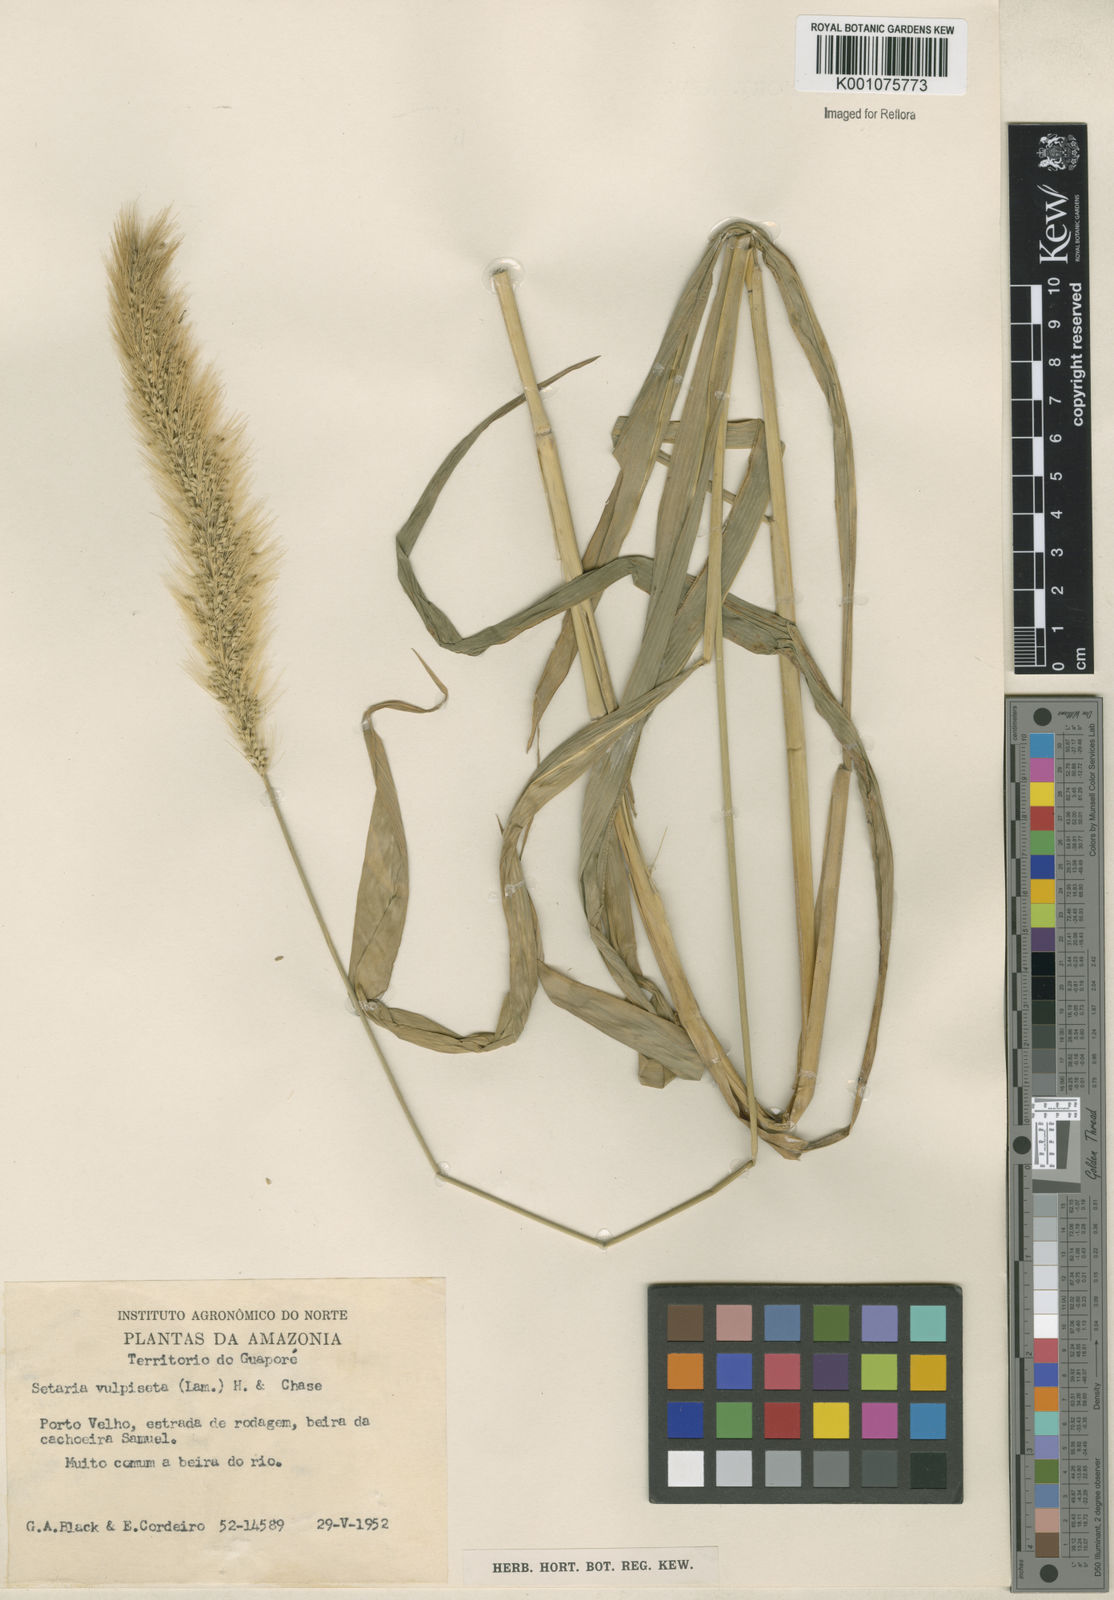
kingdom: Plantae
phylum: Tracheophyta
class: Liliopsida
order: Poales
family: Poaceae
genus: Setaria
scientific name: Setaria vulpiseta
